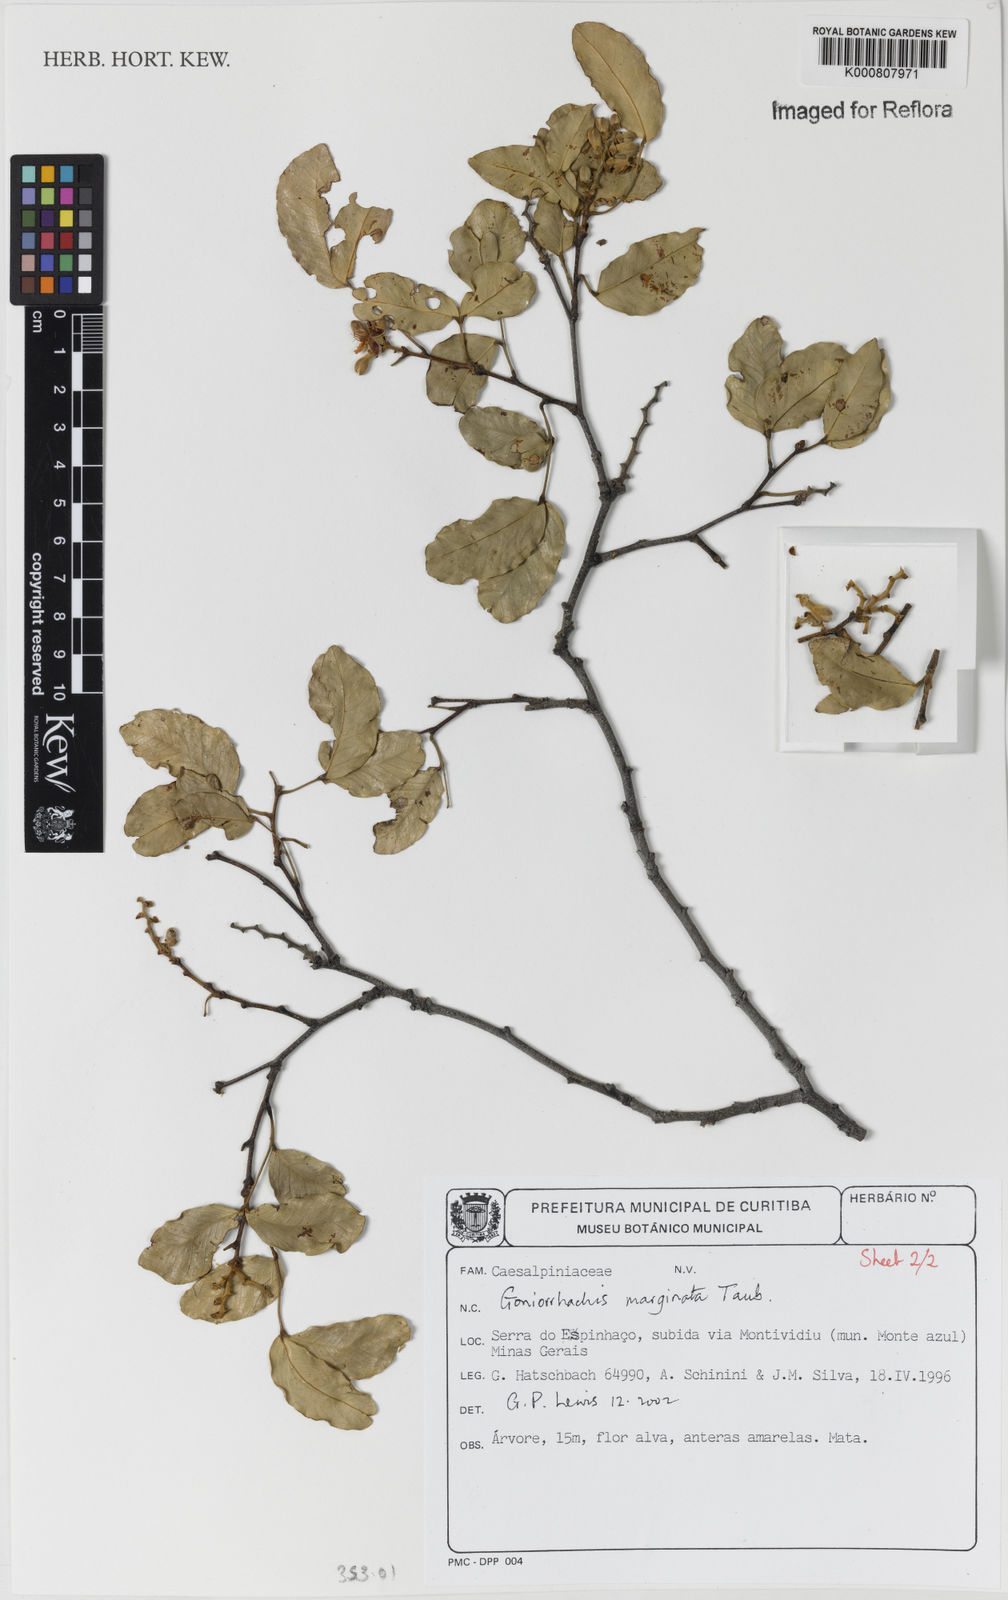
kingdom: Plantae
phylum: Tracheophyta
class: Magnoliopsida
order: Fabales
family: Fabaceae
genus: Goniorrhachis
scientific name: Goniorrhachis marginata
